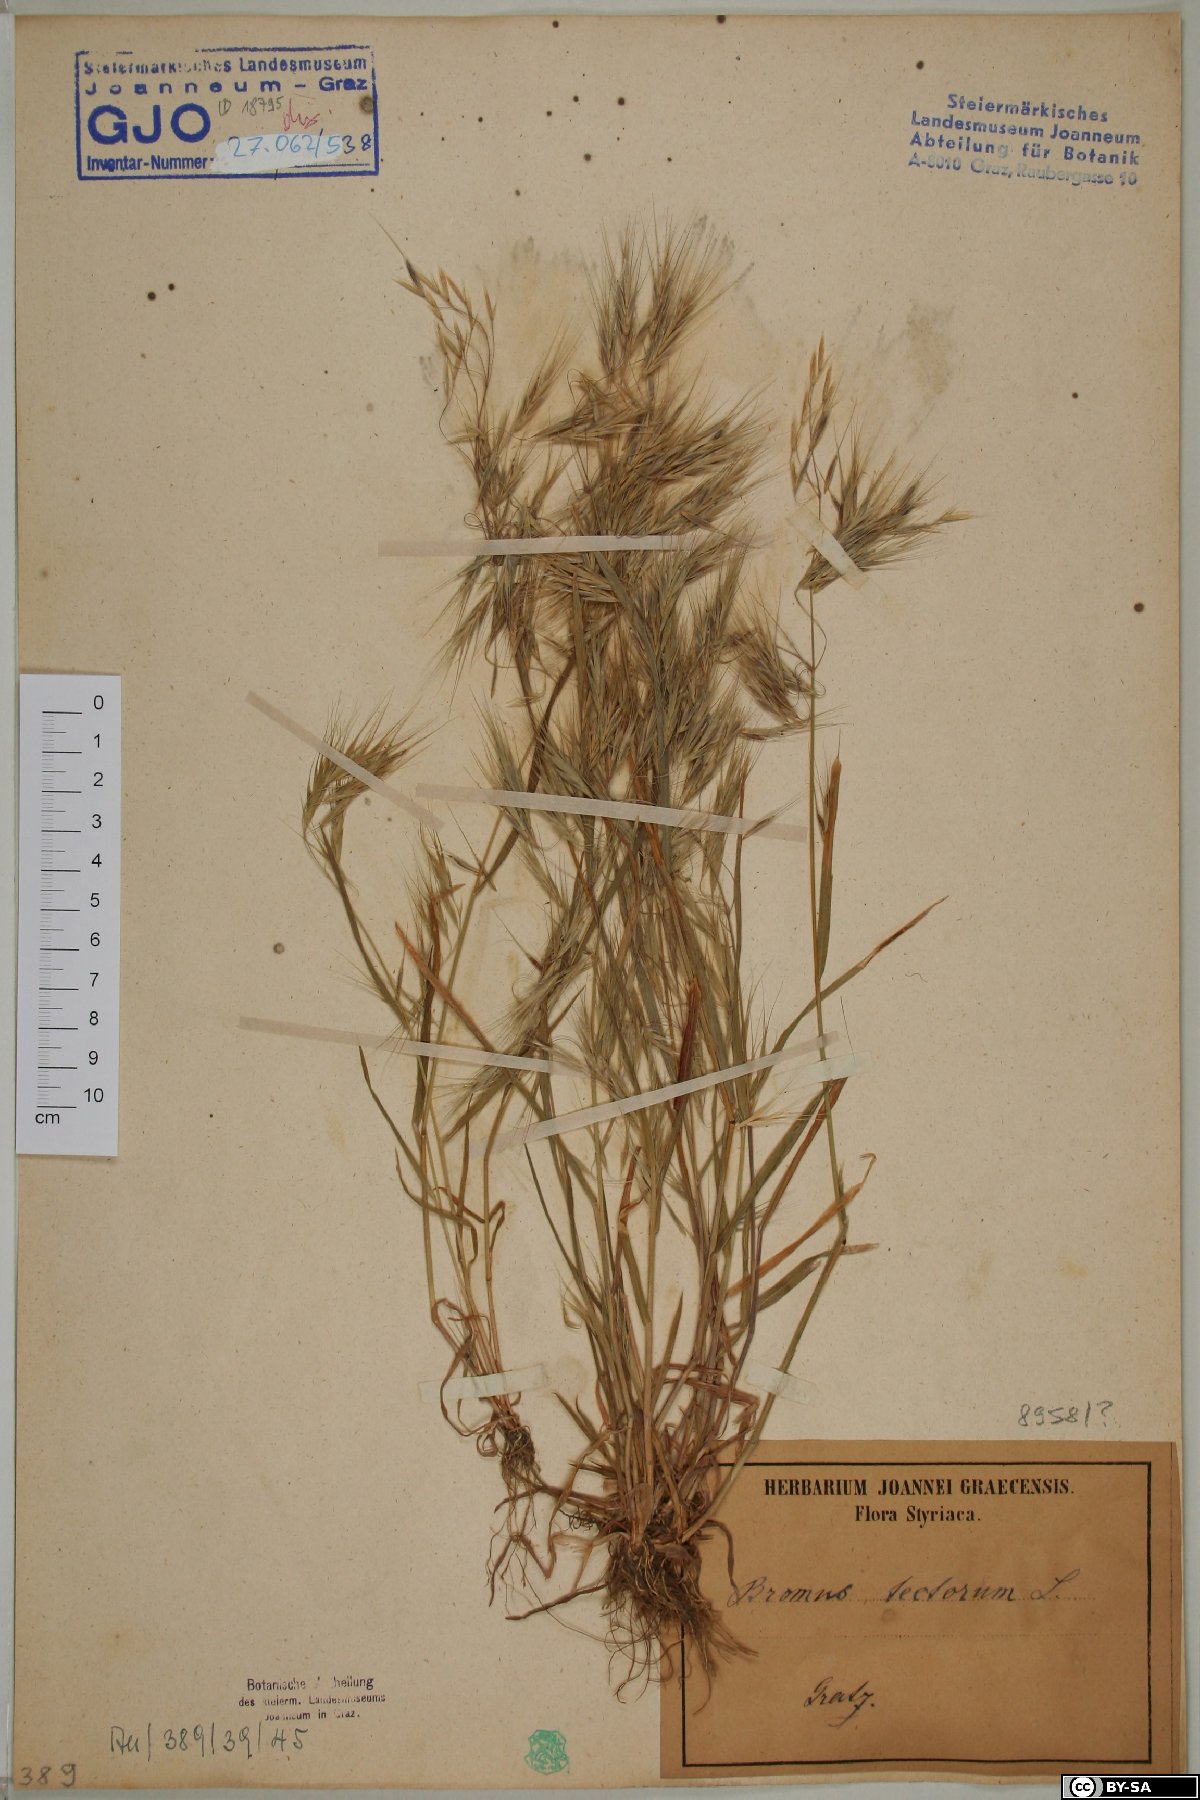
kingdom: Plantae
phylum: Tracheophyta
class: Liliopsida
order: Poales
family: Poaceae
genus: Bromus
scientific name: Bromus tectorum
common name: Cheatgrass
